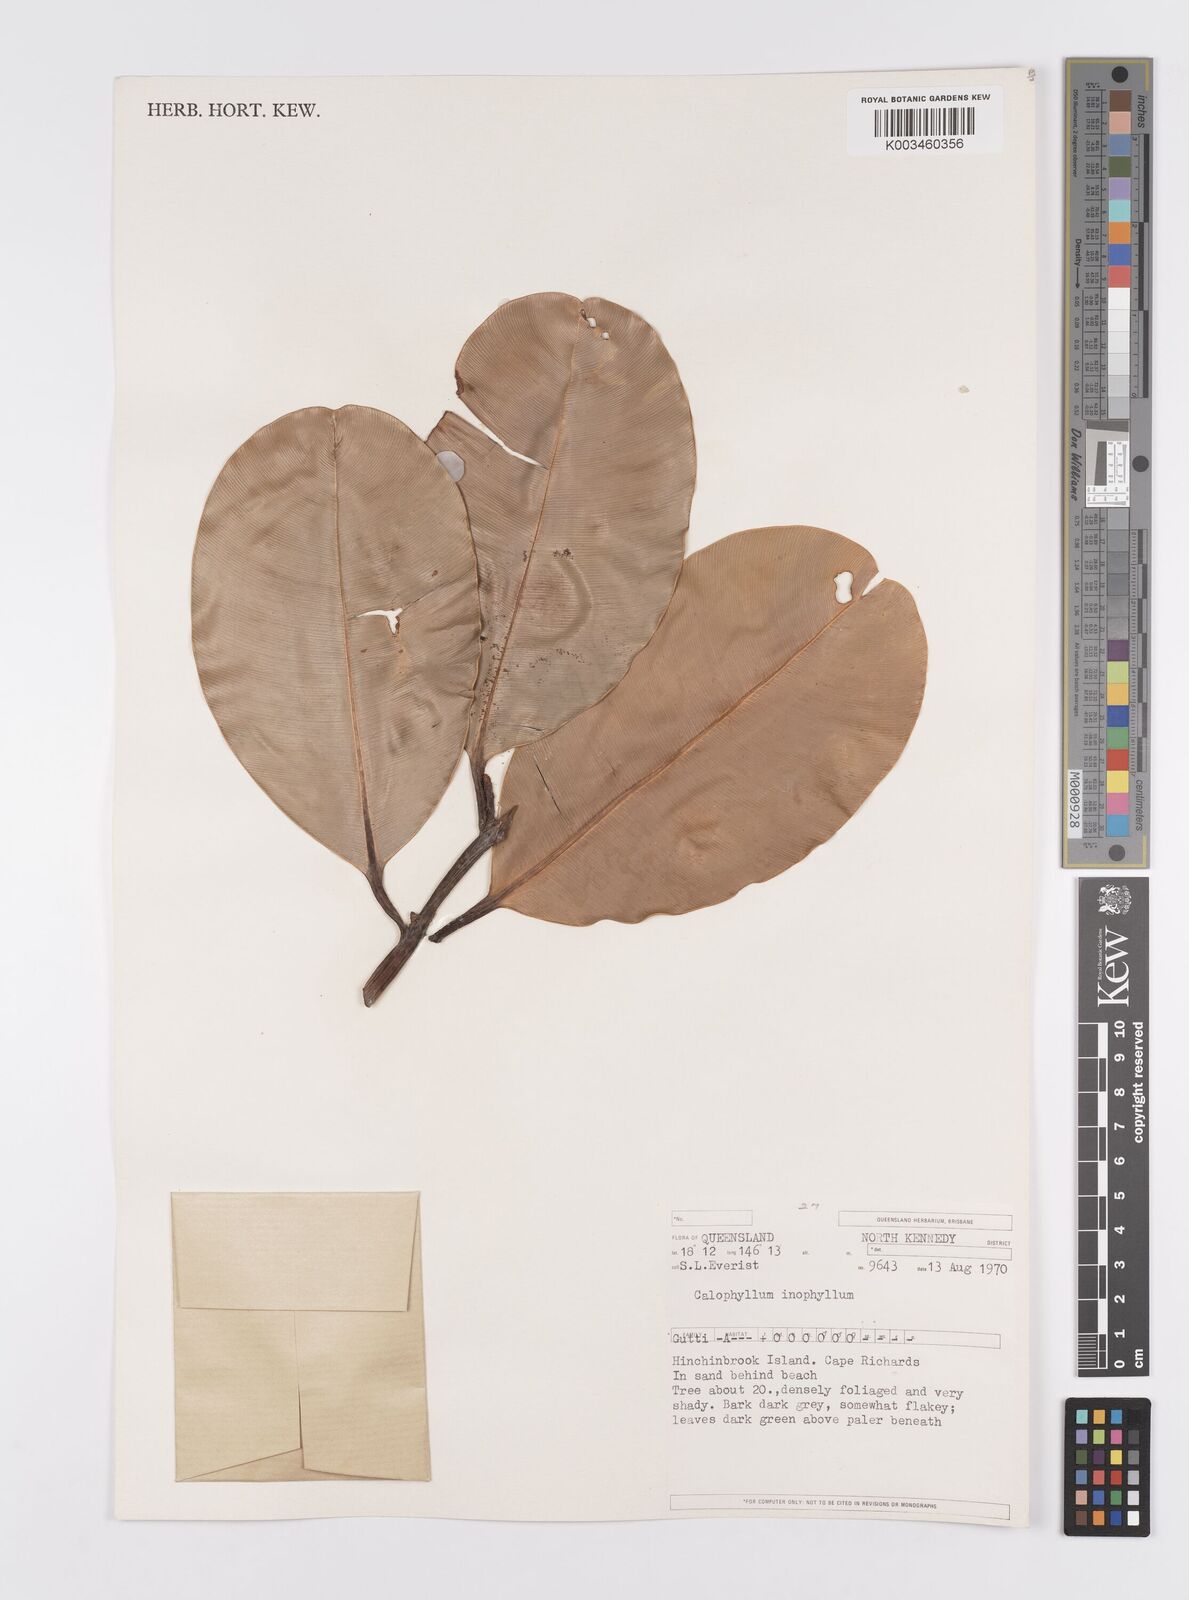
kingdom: Plantae
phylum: Tracheophyta
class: Magnoliopsida
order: Malpighiales
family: Calophyllaceae
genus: Calophyllum
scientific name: Calophyllum inophyllum
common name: Alexandrian laurel
